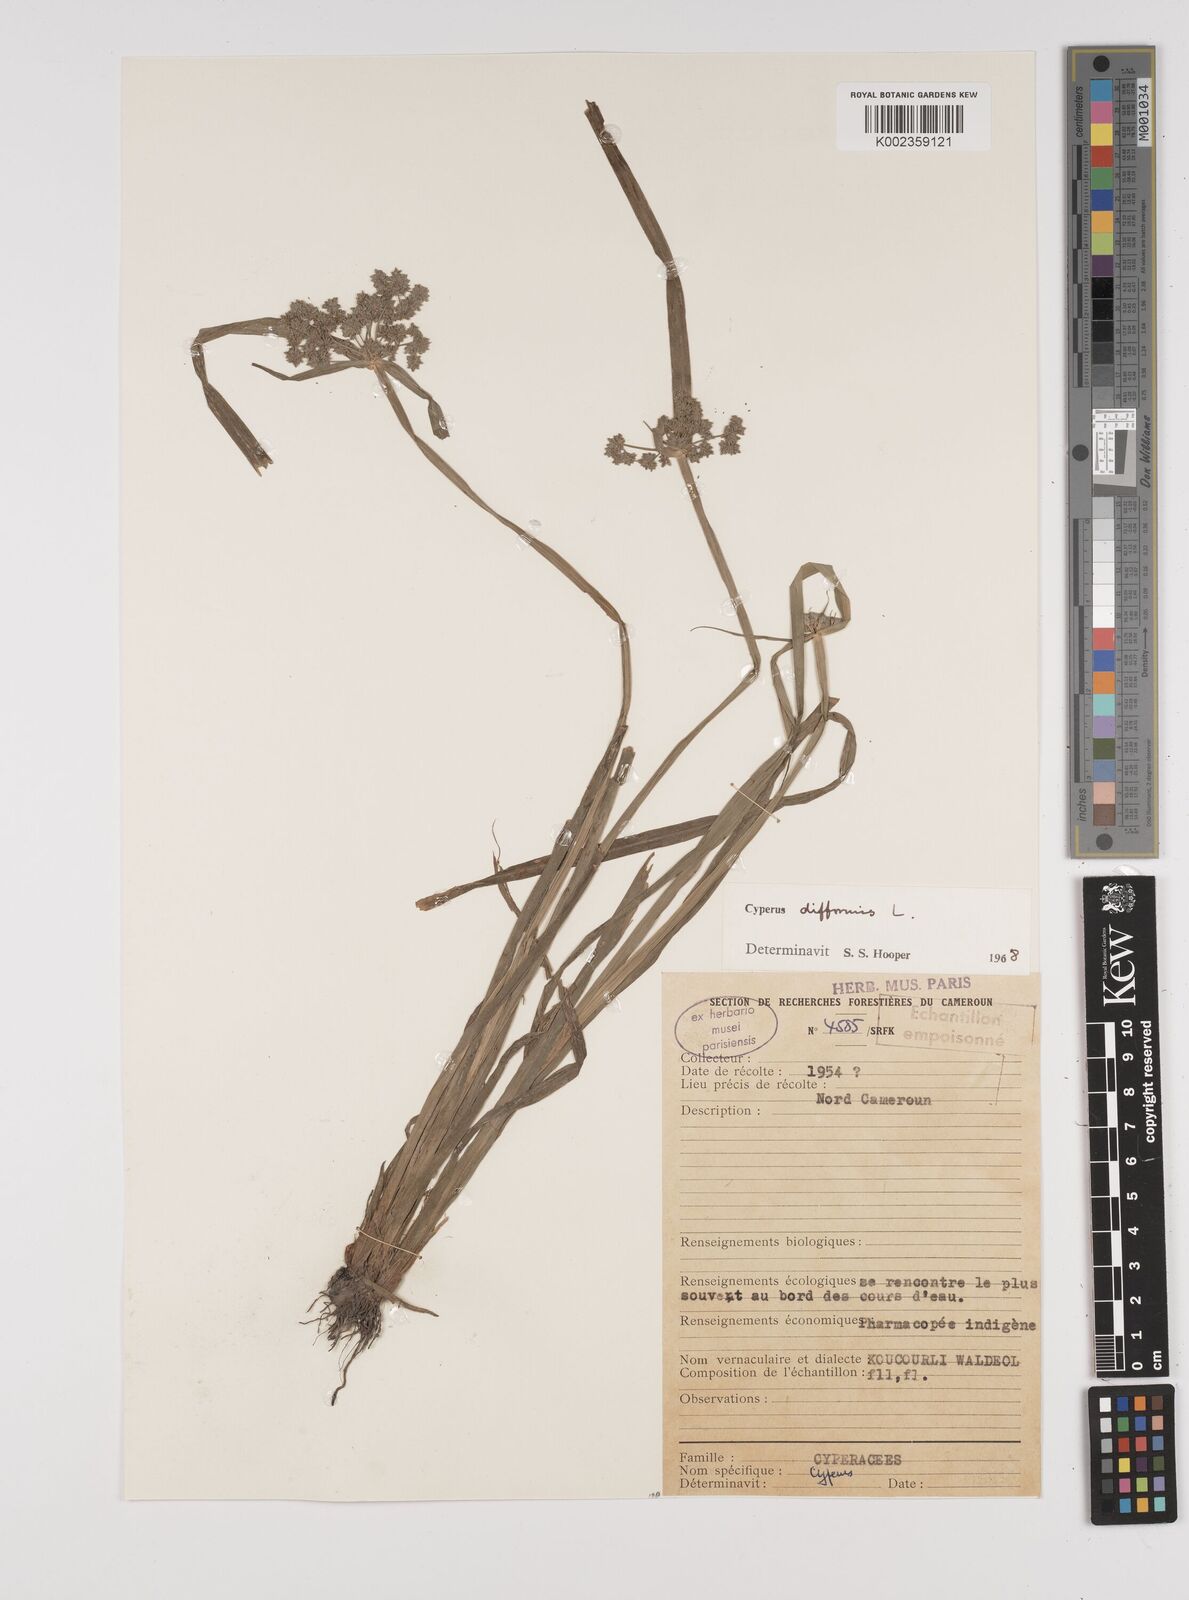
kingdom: Plantae
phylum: Tracheophyta
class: Liliopsida
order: Poales
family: Cyperaceae
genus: Cyperus
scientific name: Cyperus difformis
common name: Variable flatsedge
